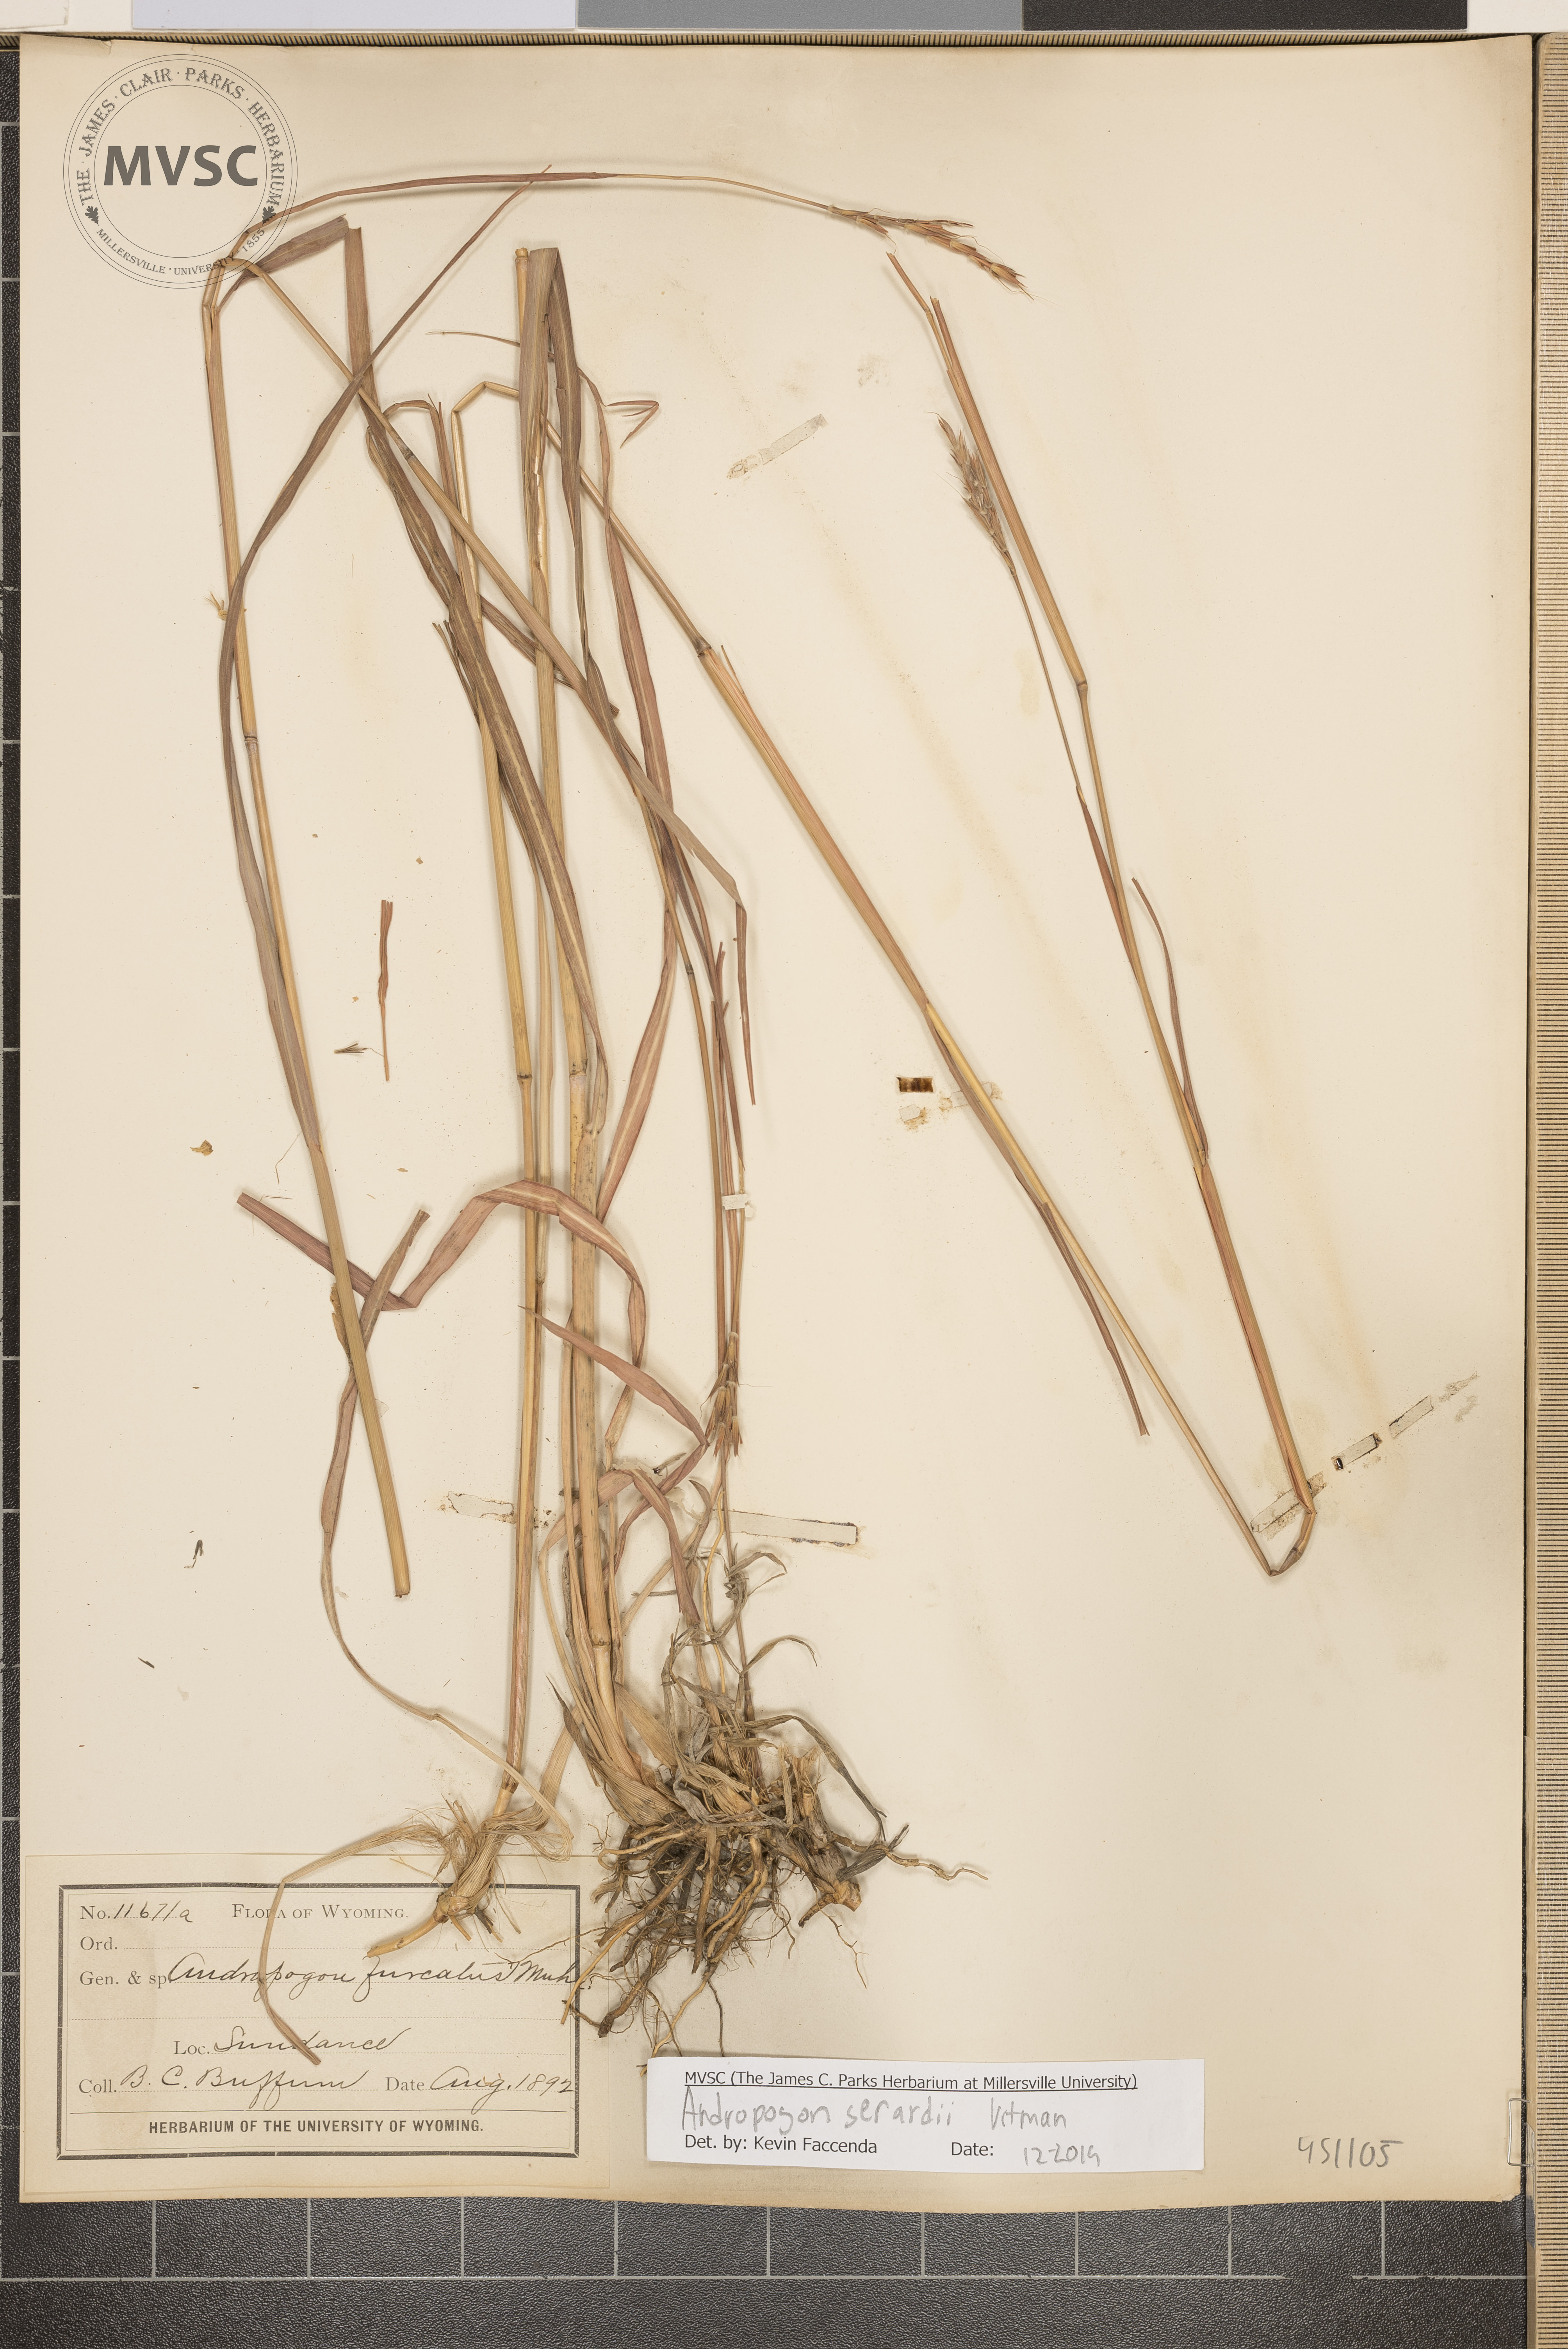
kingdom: Plantae
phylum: Tracheophyta
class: Liliopsida
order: Poales
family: Poaceae
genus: Andropogon
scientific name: Andropogon gerardi
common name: Big bluestem
